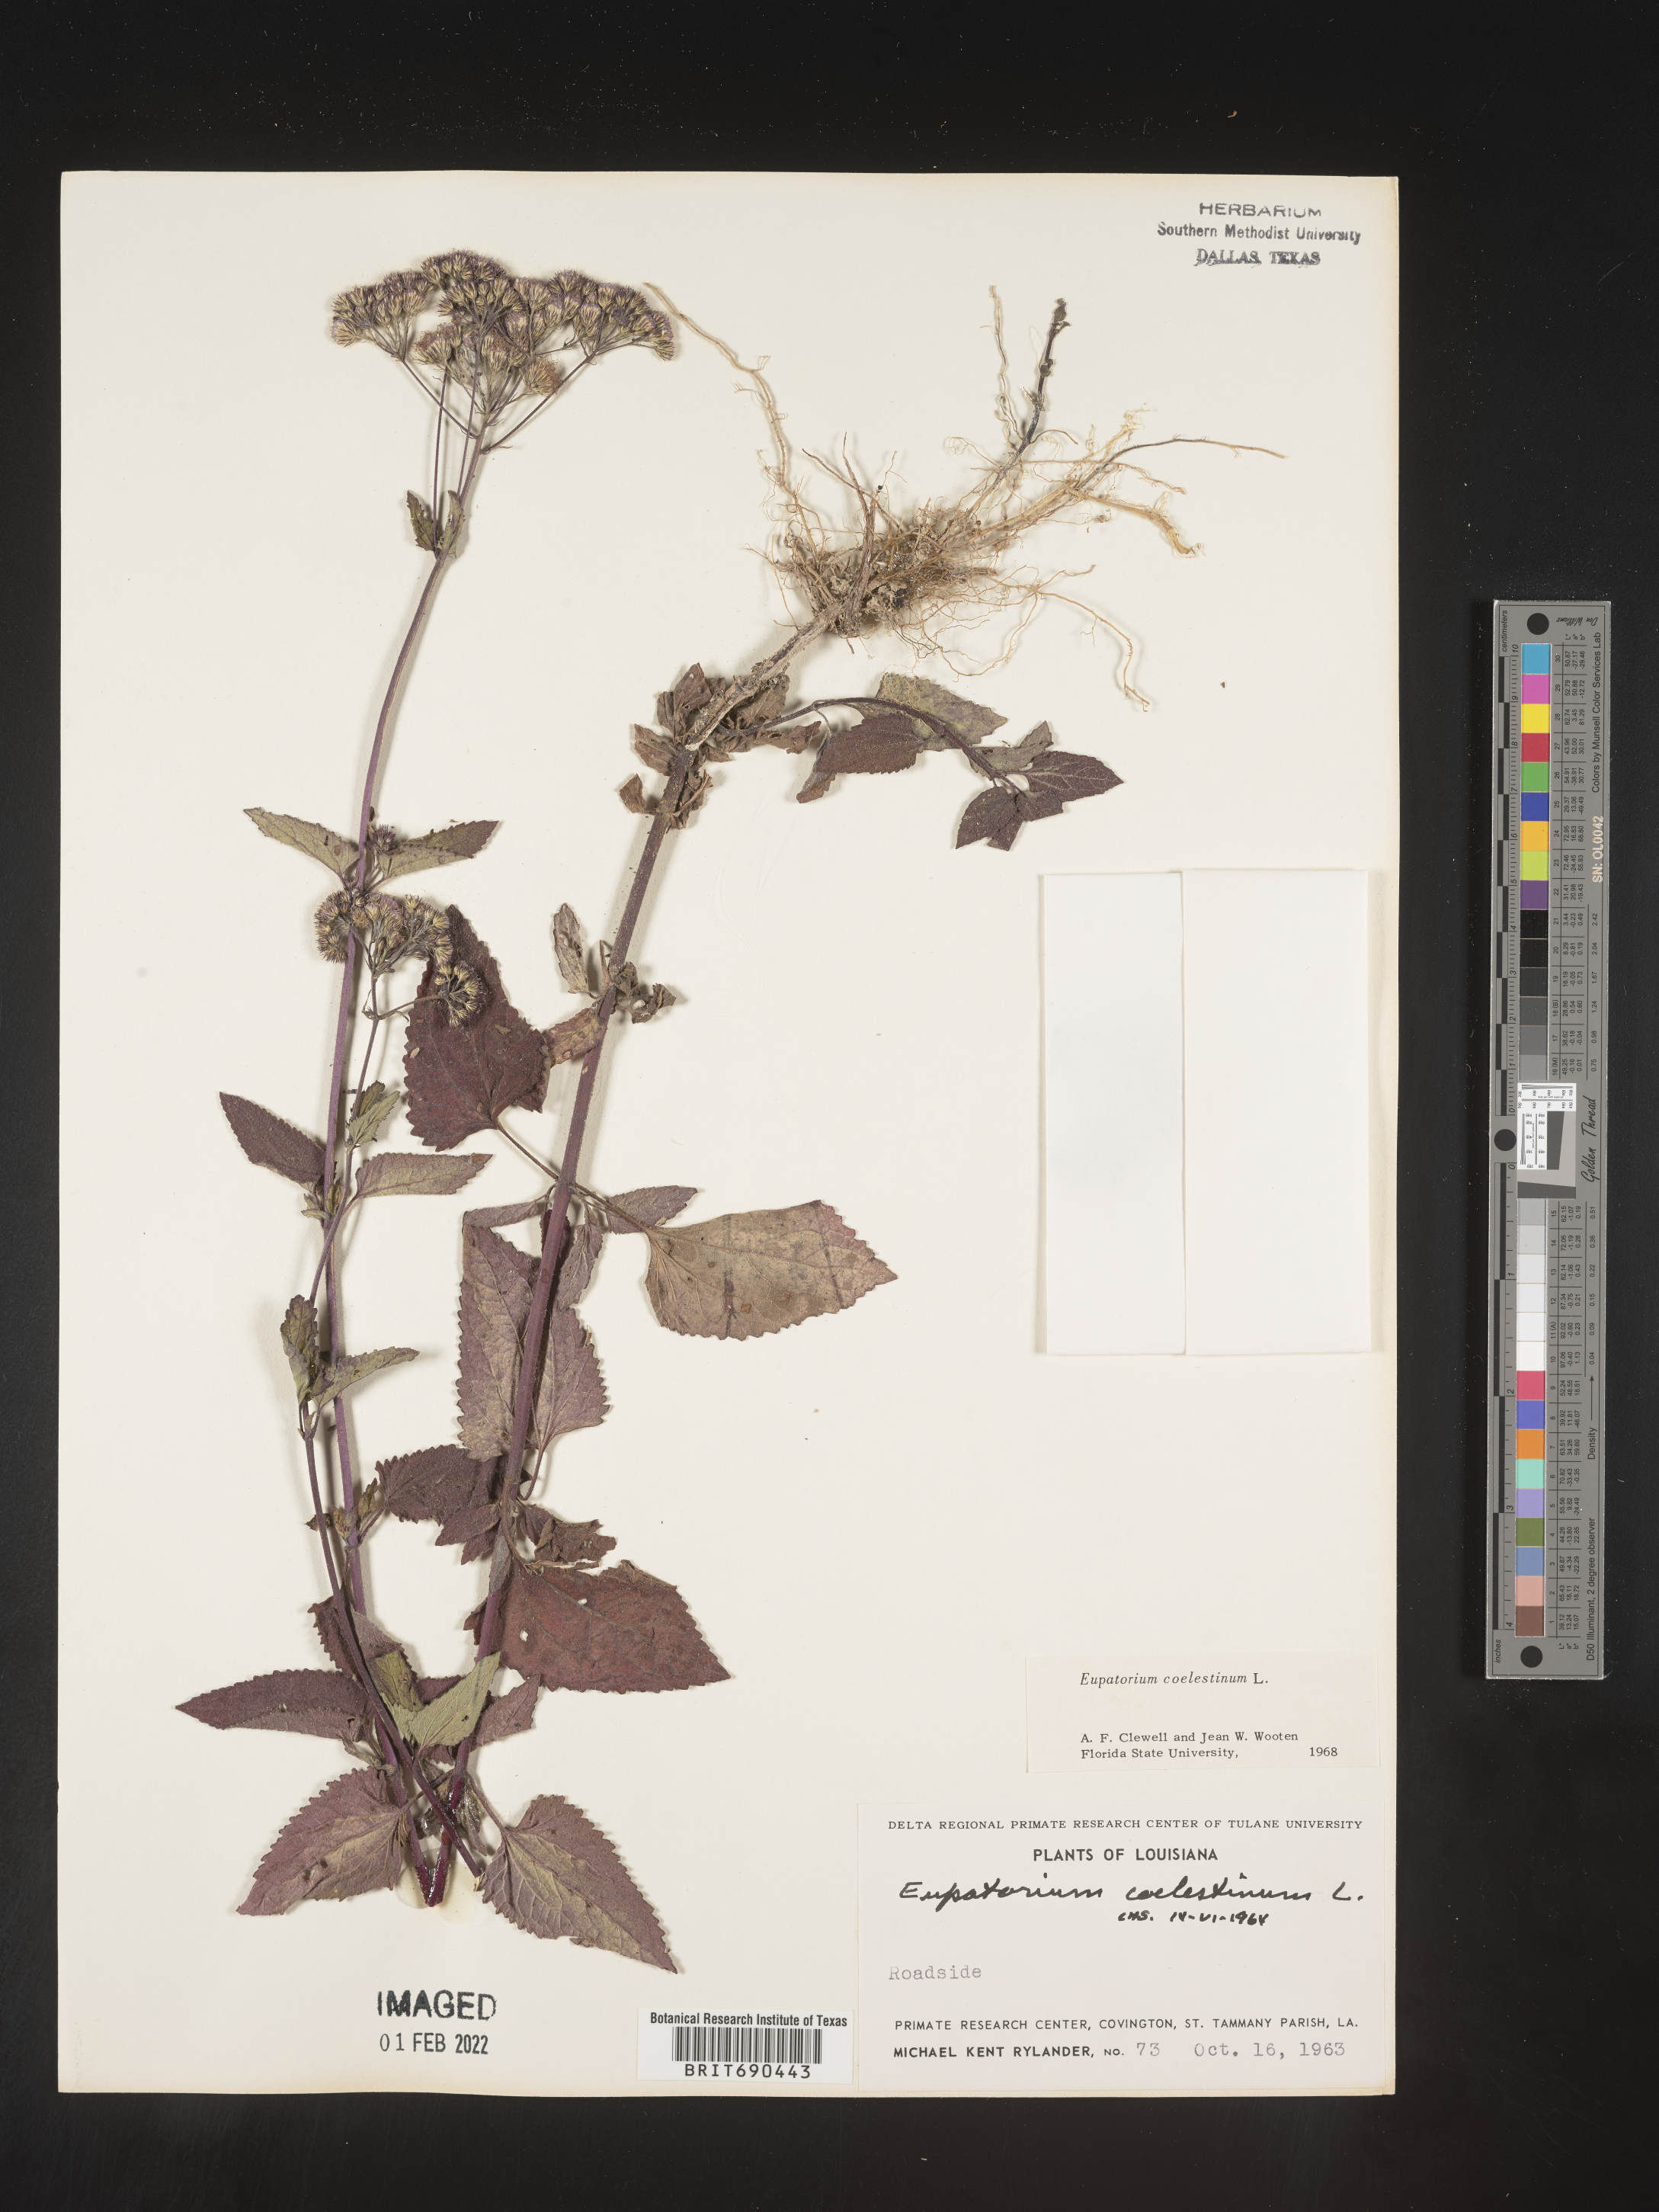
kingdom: Plantae
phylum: Tracheophyta
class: Magnoliopsida
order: Asterales
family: Asteraceae
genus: Conoclinium
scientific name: Conoclinium coelestinum
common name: Blue mistflower
